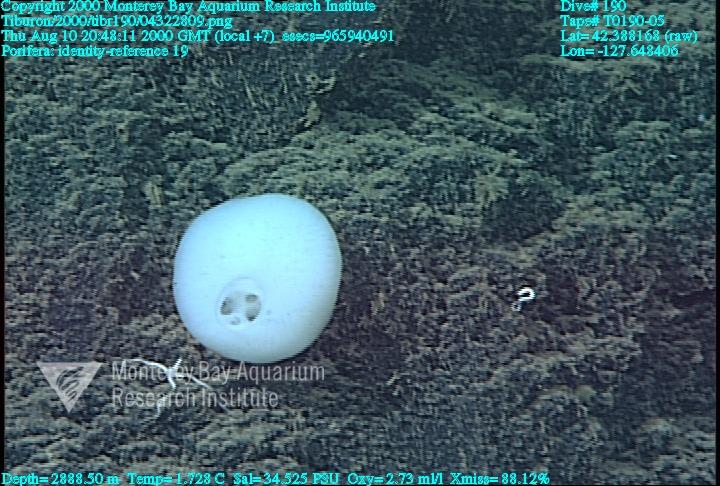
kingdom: Animalia
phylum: Porifera
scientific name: Porifera
